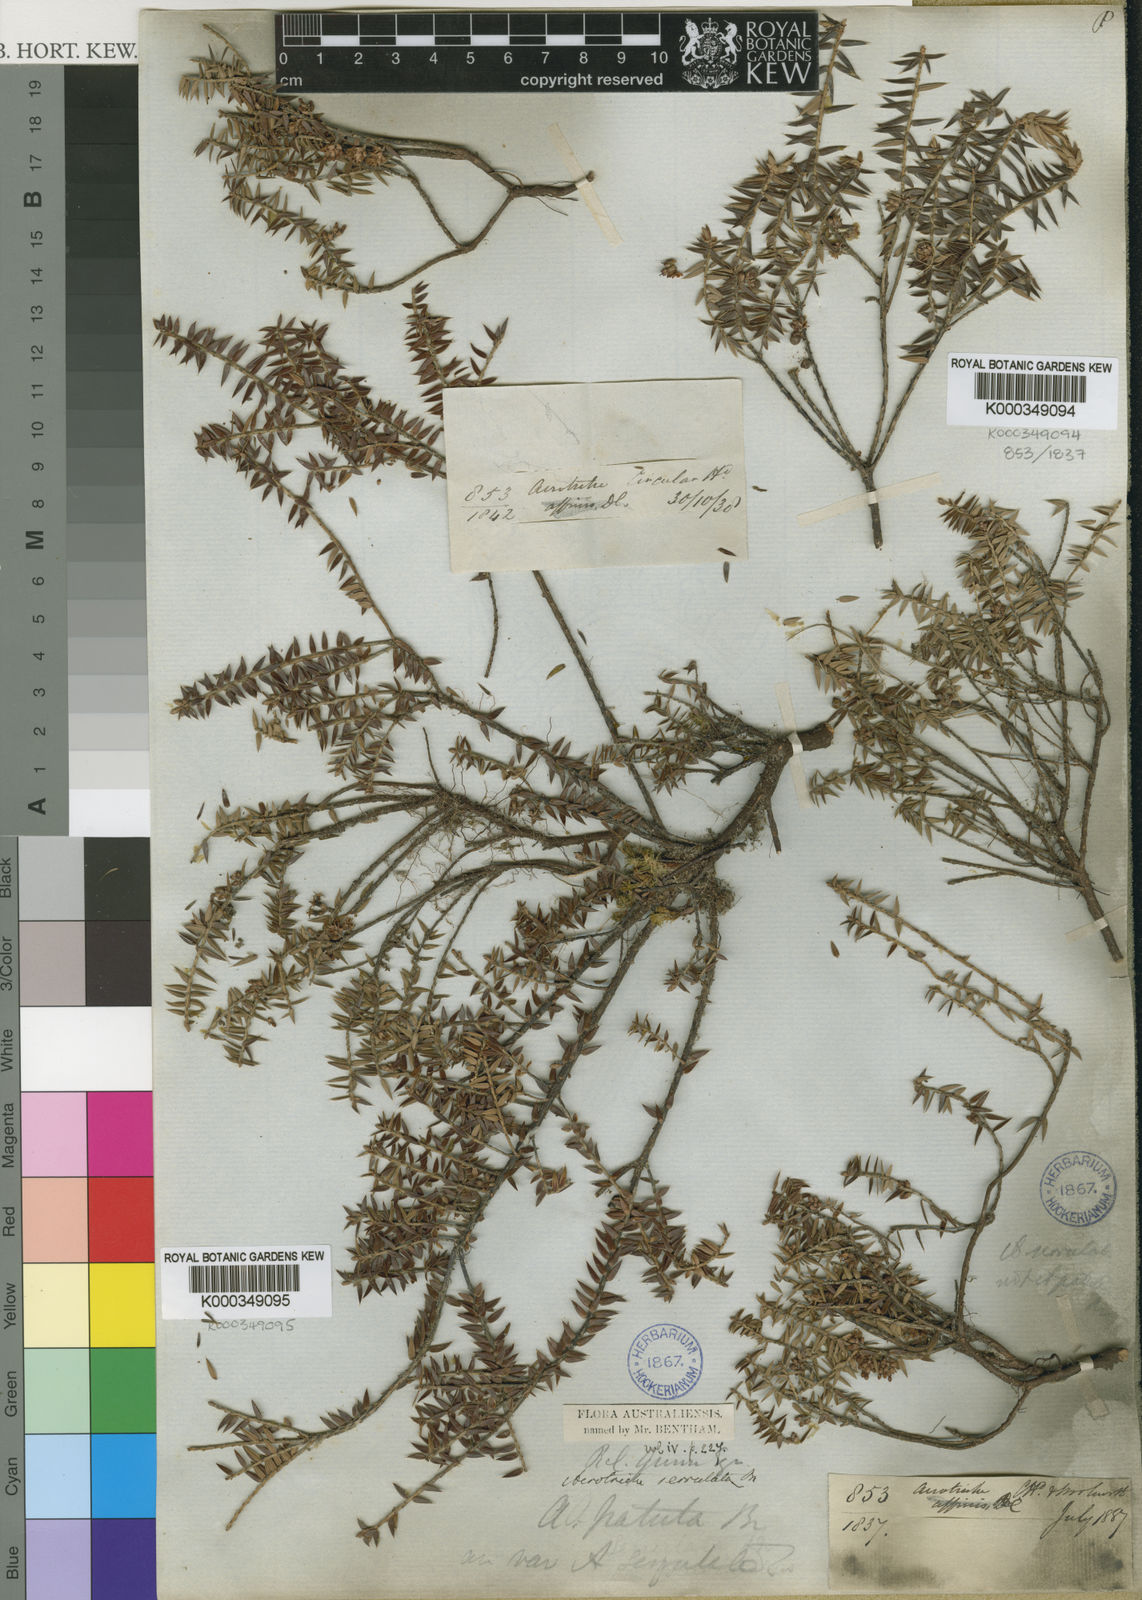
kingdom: Plantae
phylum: Tracheophyta
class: Magnoliopsida
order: Ericales
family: Ericaceae
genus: Acrotriche
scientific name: Acrotriche patula
